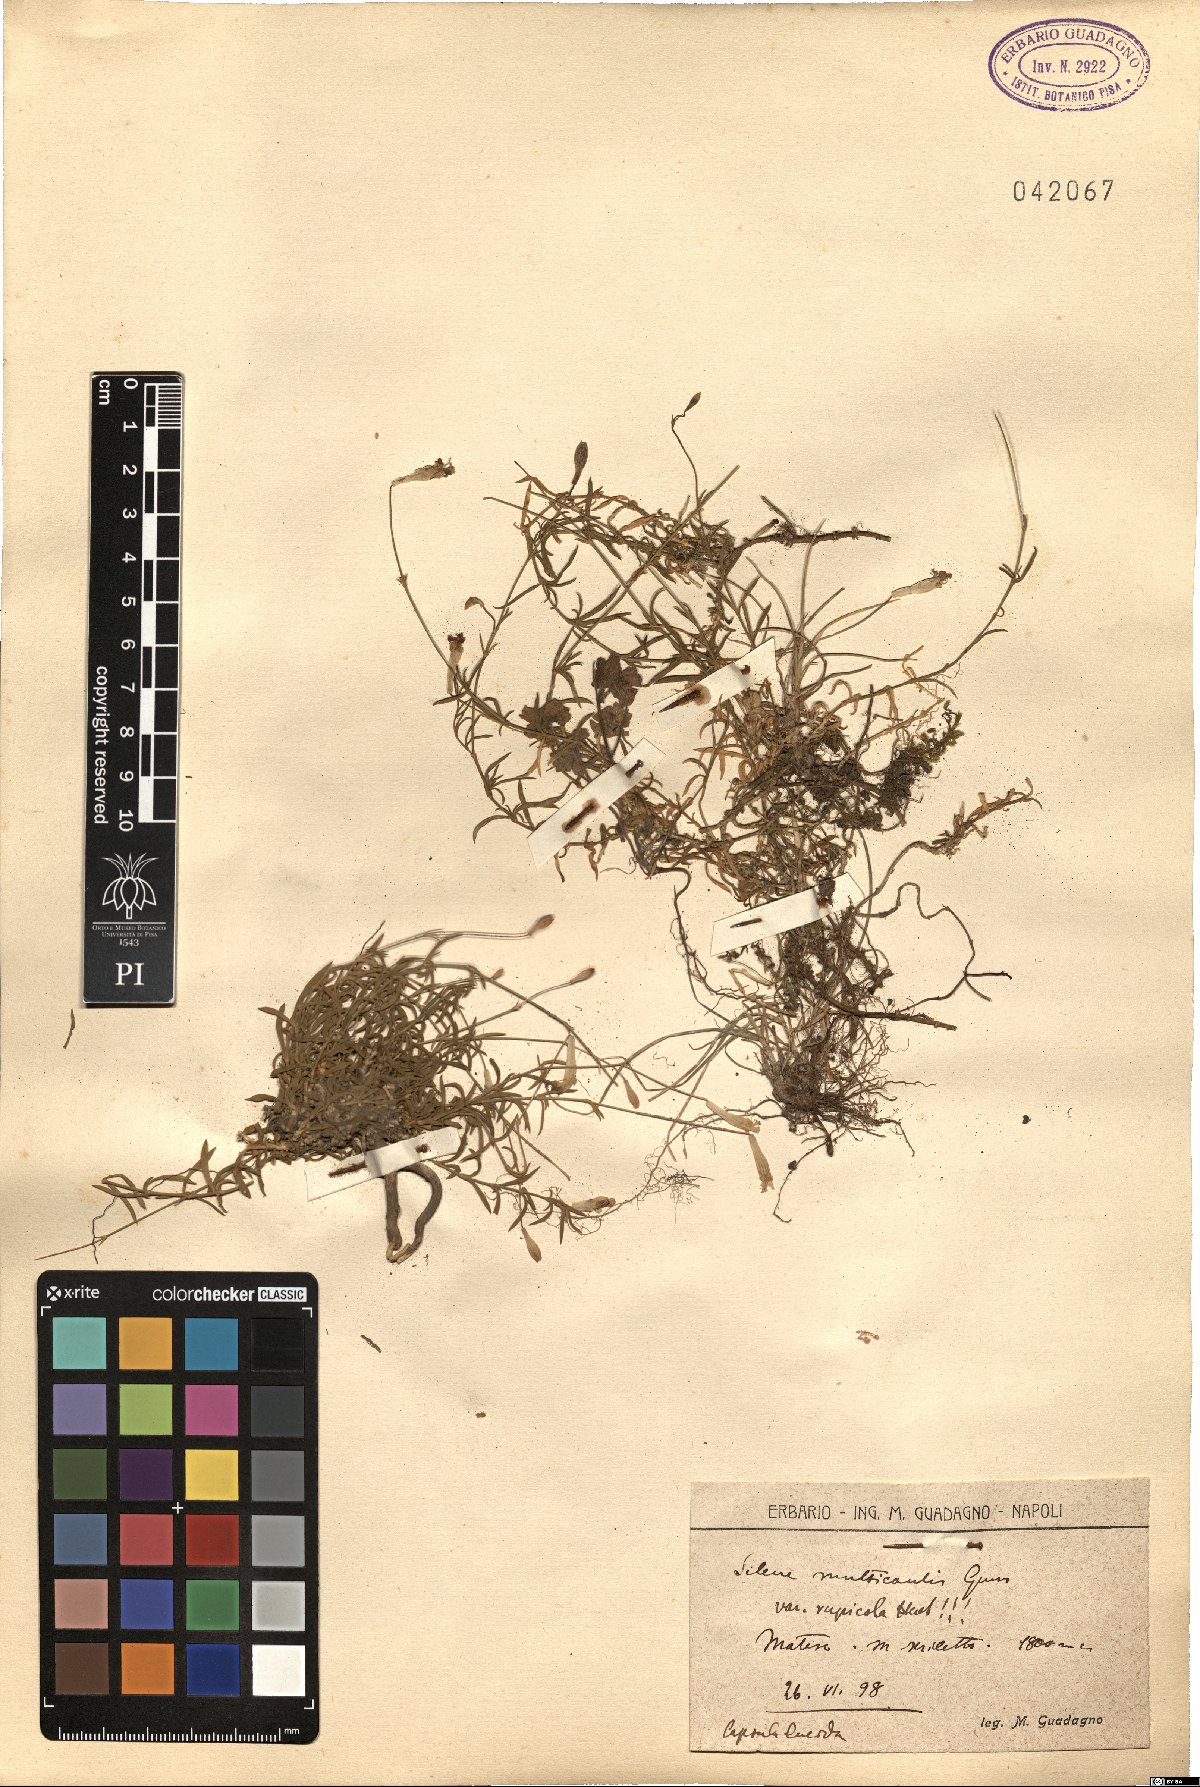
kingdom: Plantae
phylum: Tracheophyta
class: Magnoliopsida
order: Caryophyllales
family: Caryophyllaceae
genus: Silene
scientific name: Silene saxifraga
